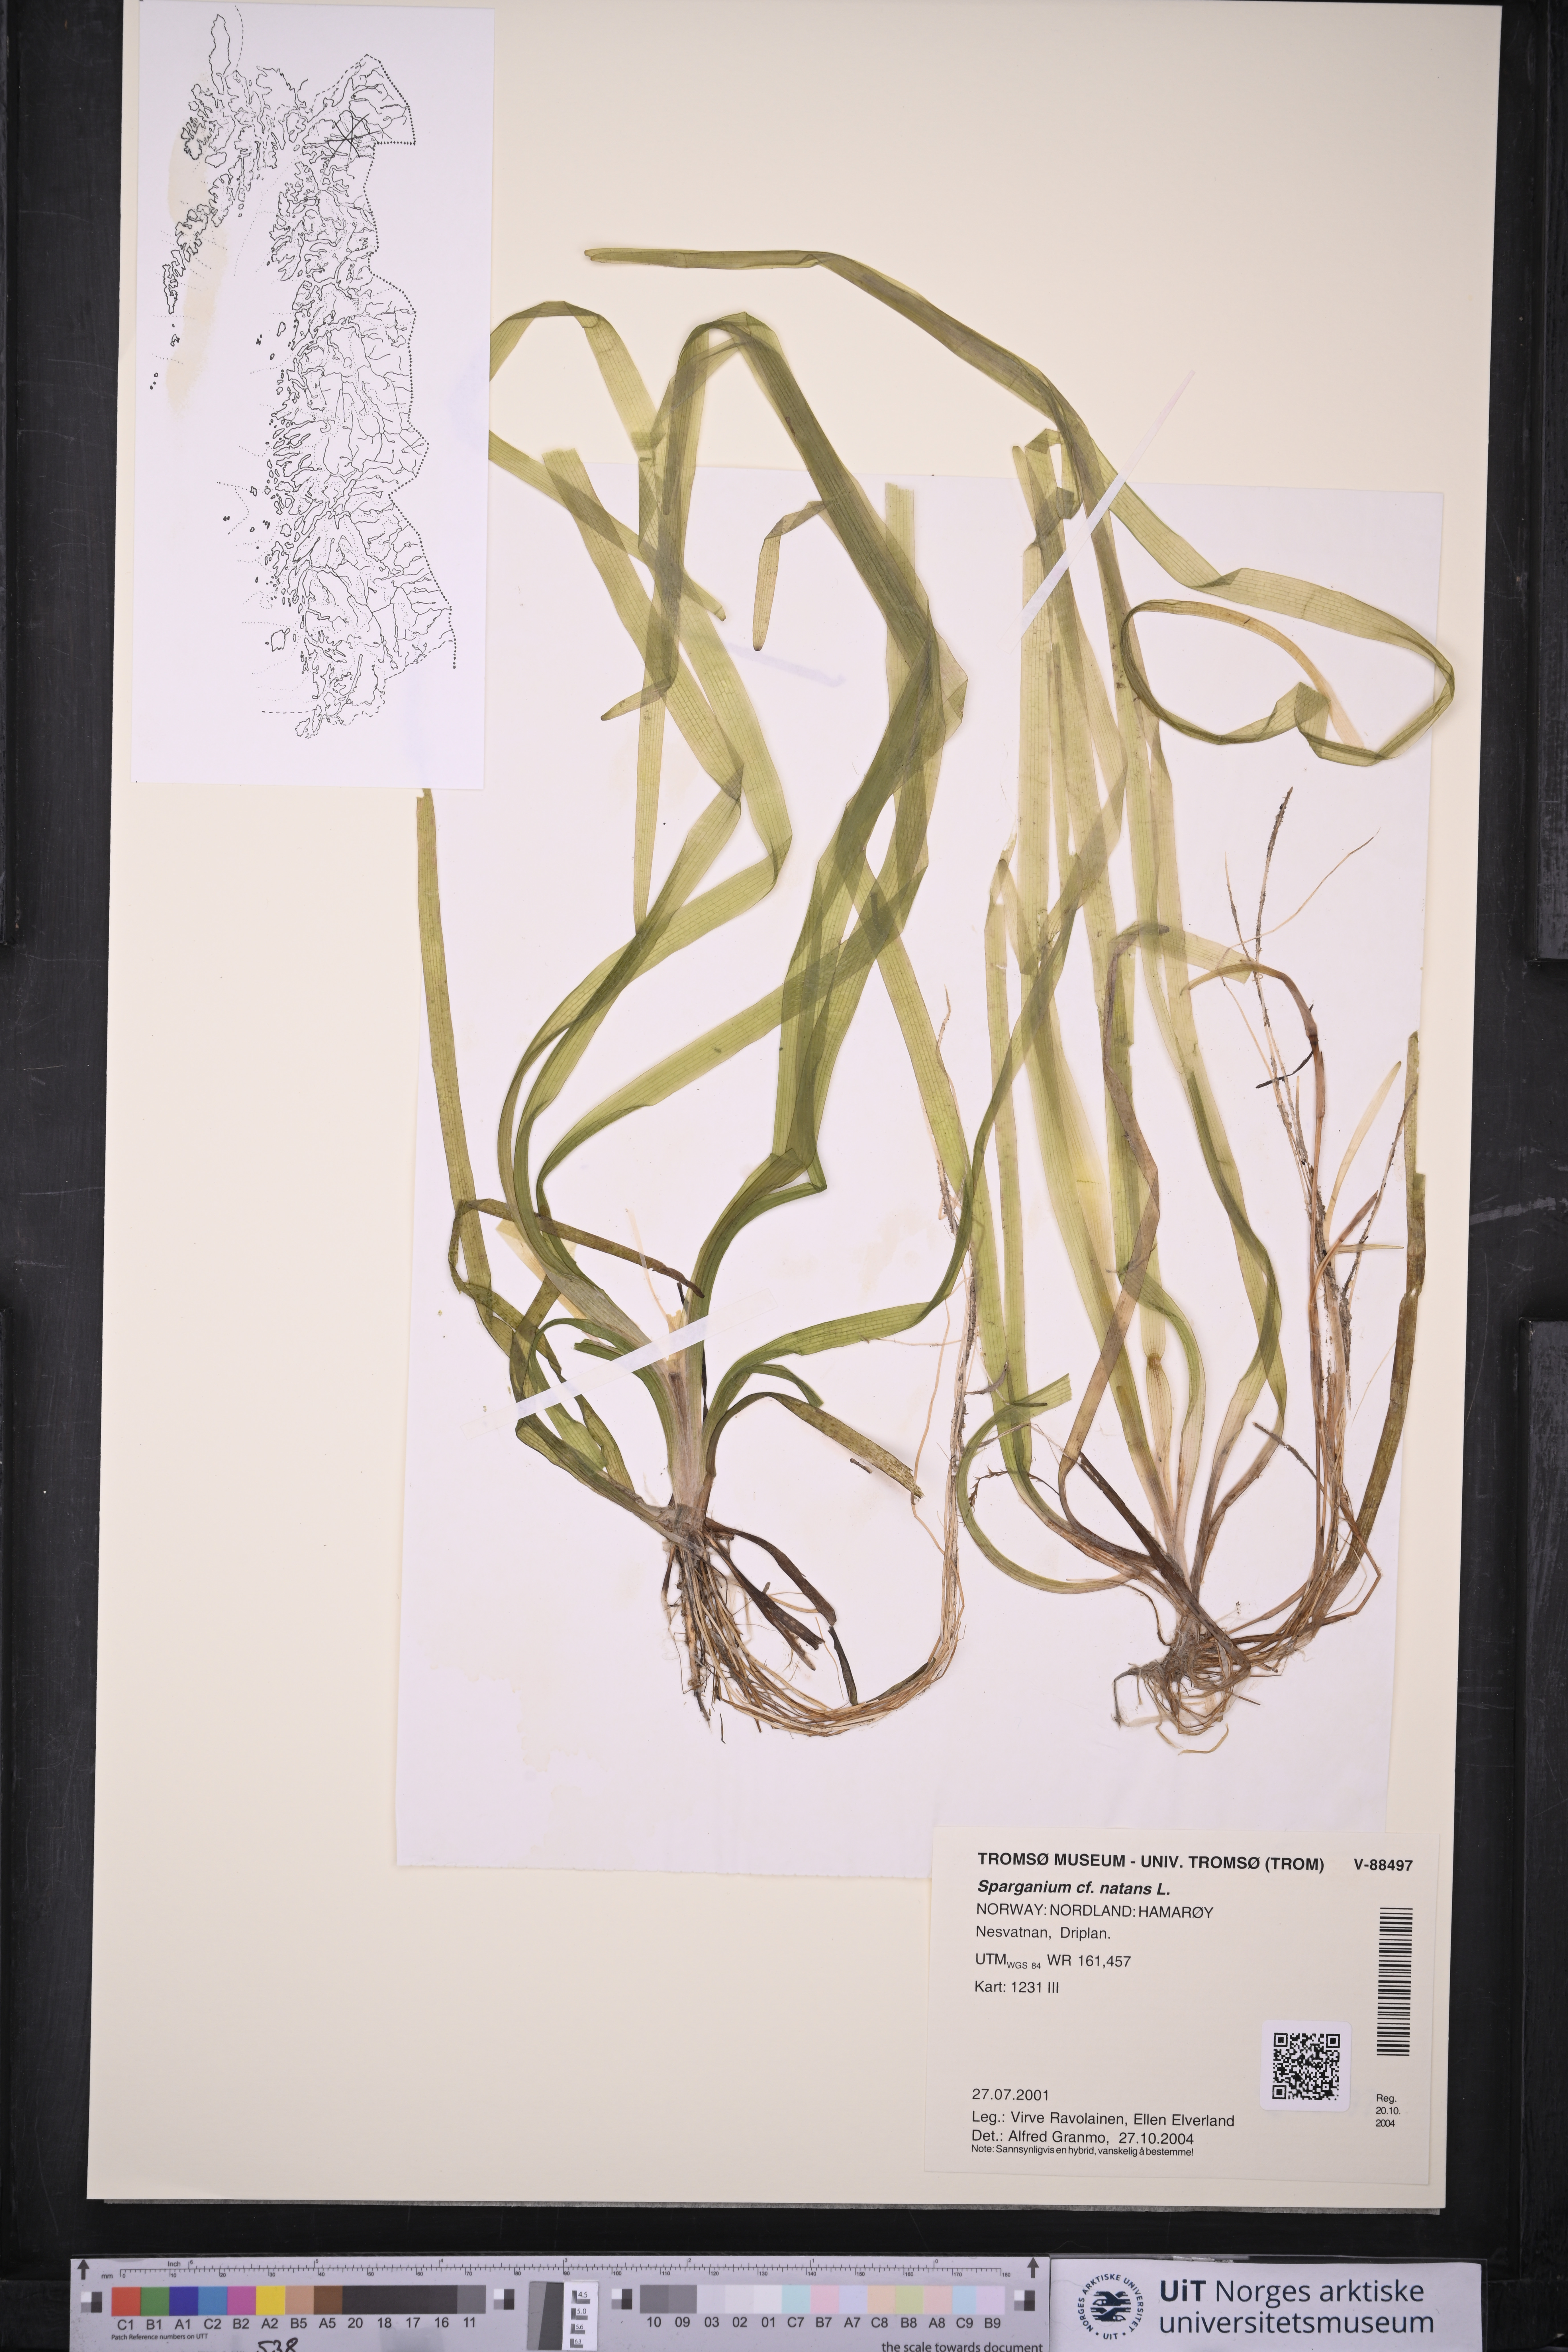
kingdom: Plantae
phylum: Tracheophyta
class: Liliopsida
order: Poales
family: Typhaceae
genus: Sparganium
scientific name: Sparganium natans
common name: Least bur-reed
